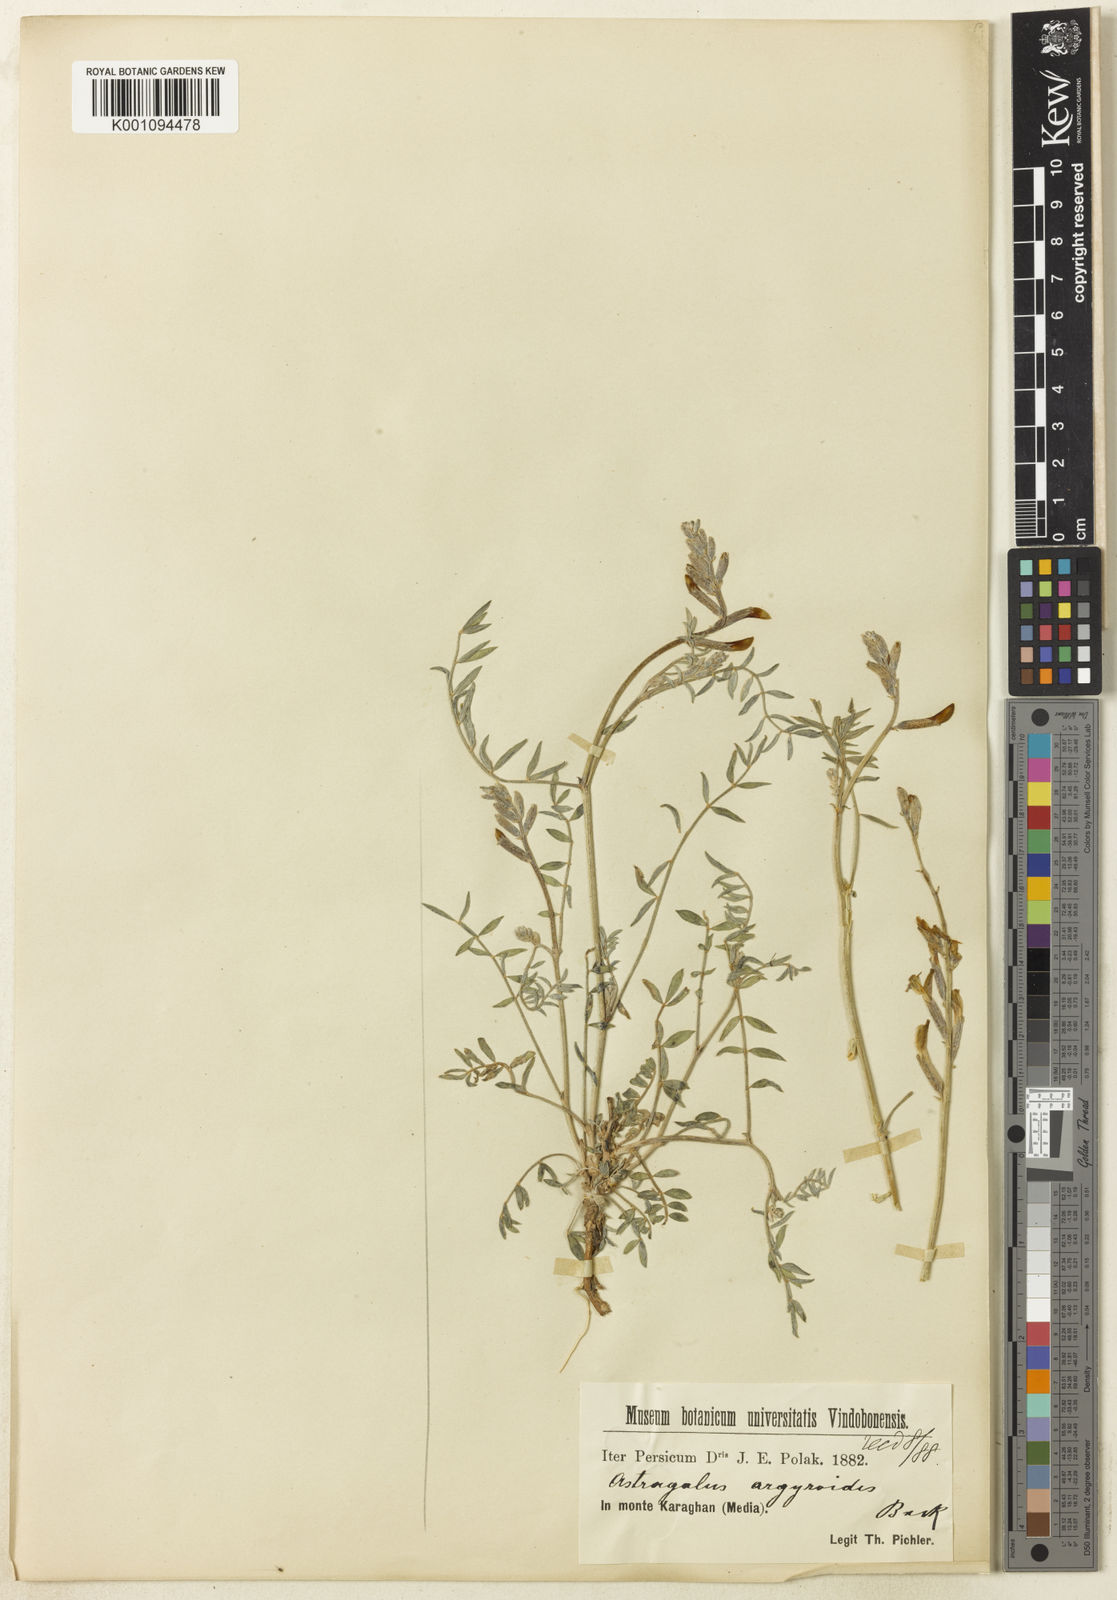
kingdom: Plantae
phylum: Tracheophyta
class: Magnoliopsida
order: Fabales
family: Fabaceae
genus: Astragalus
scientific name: Astragalus argyroides
